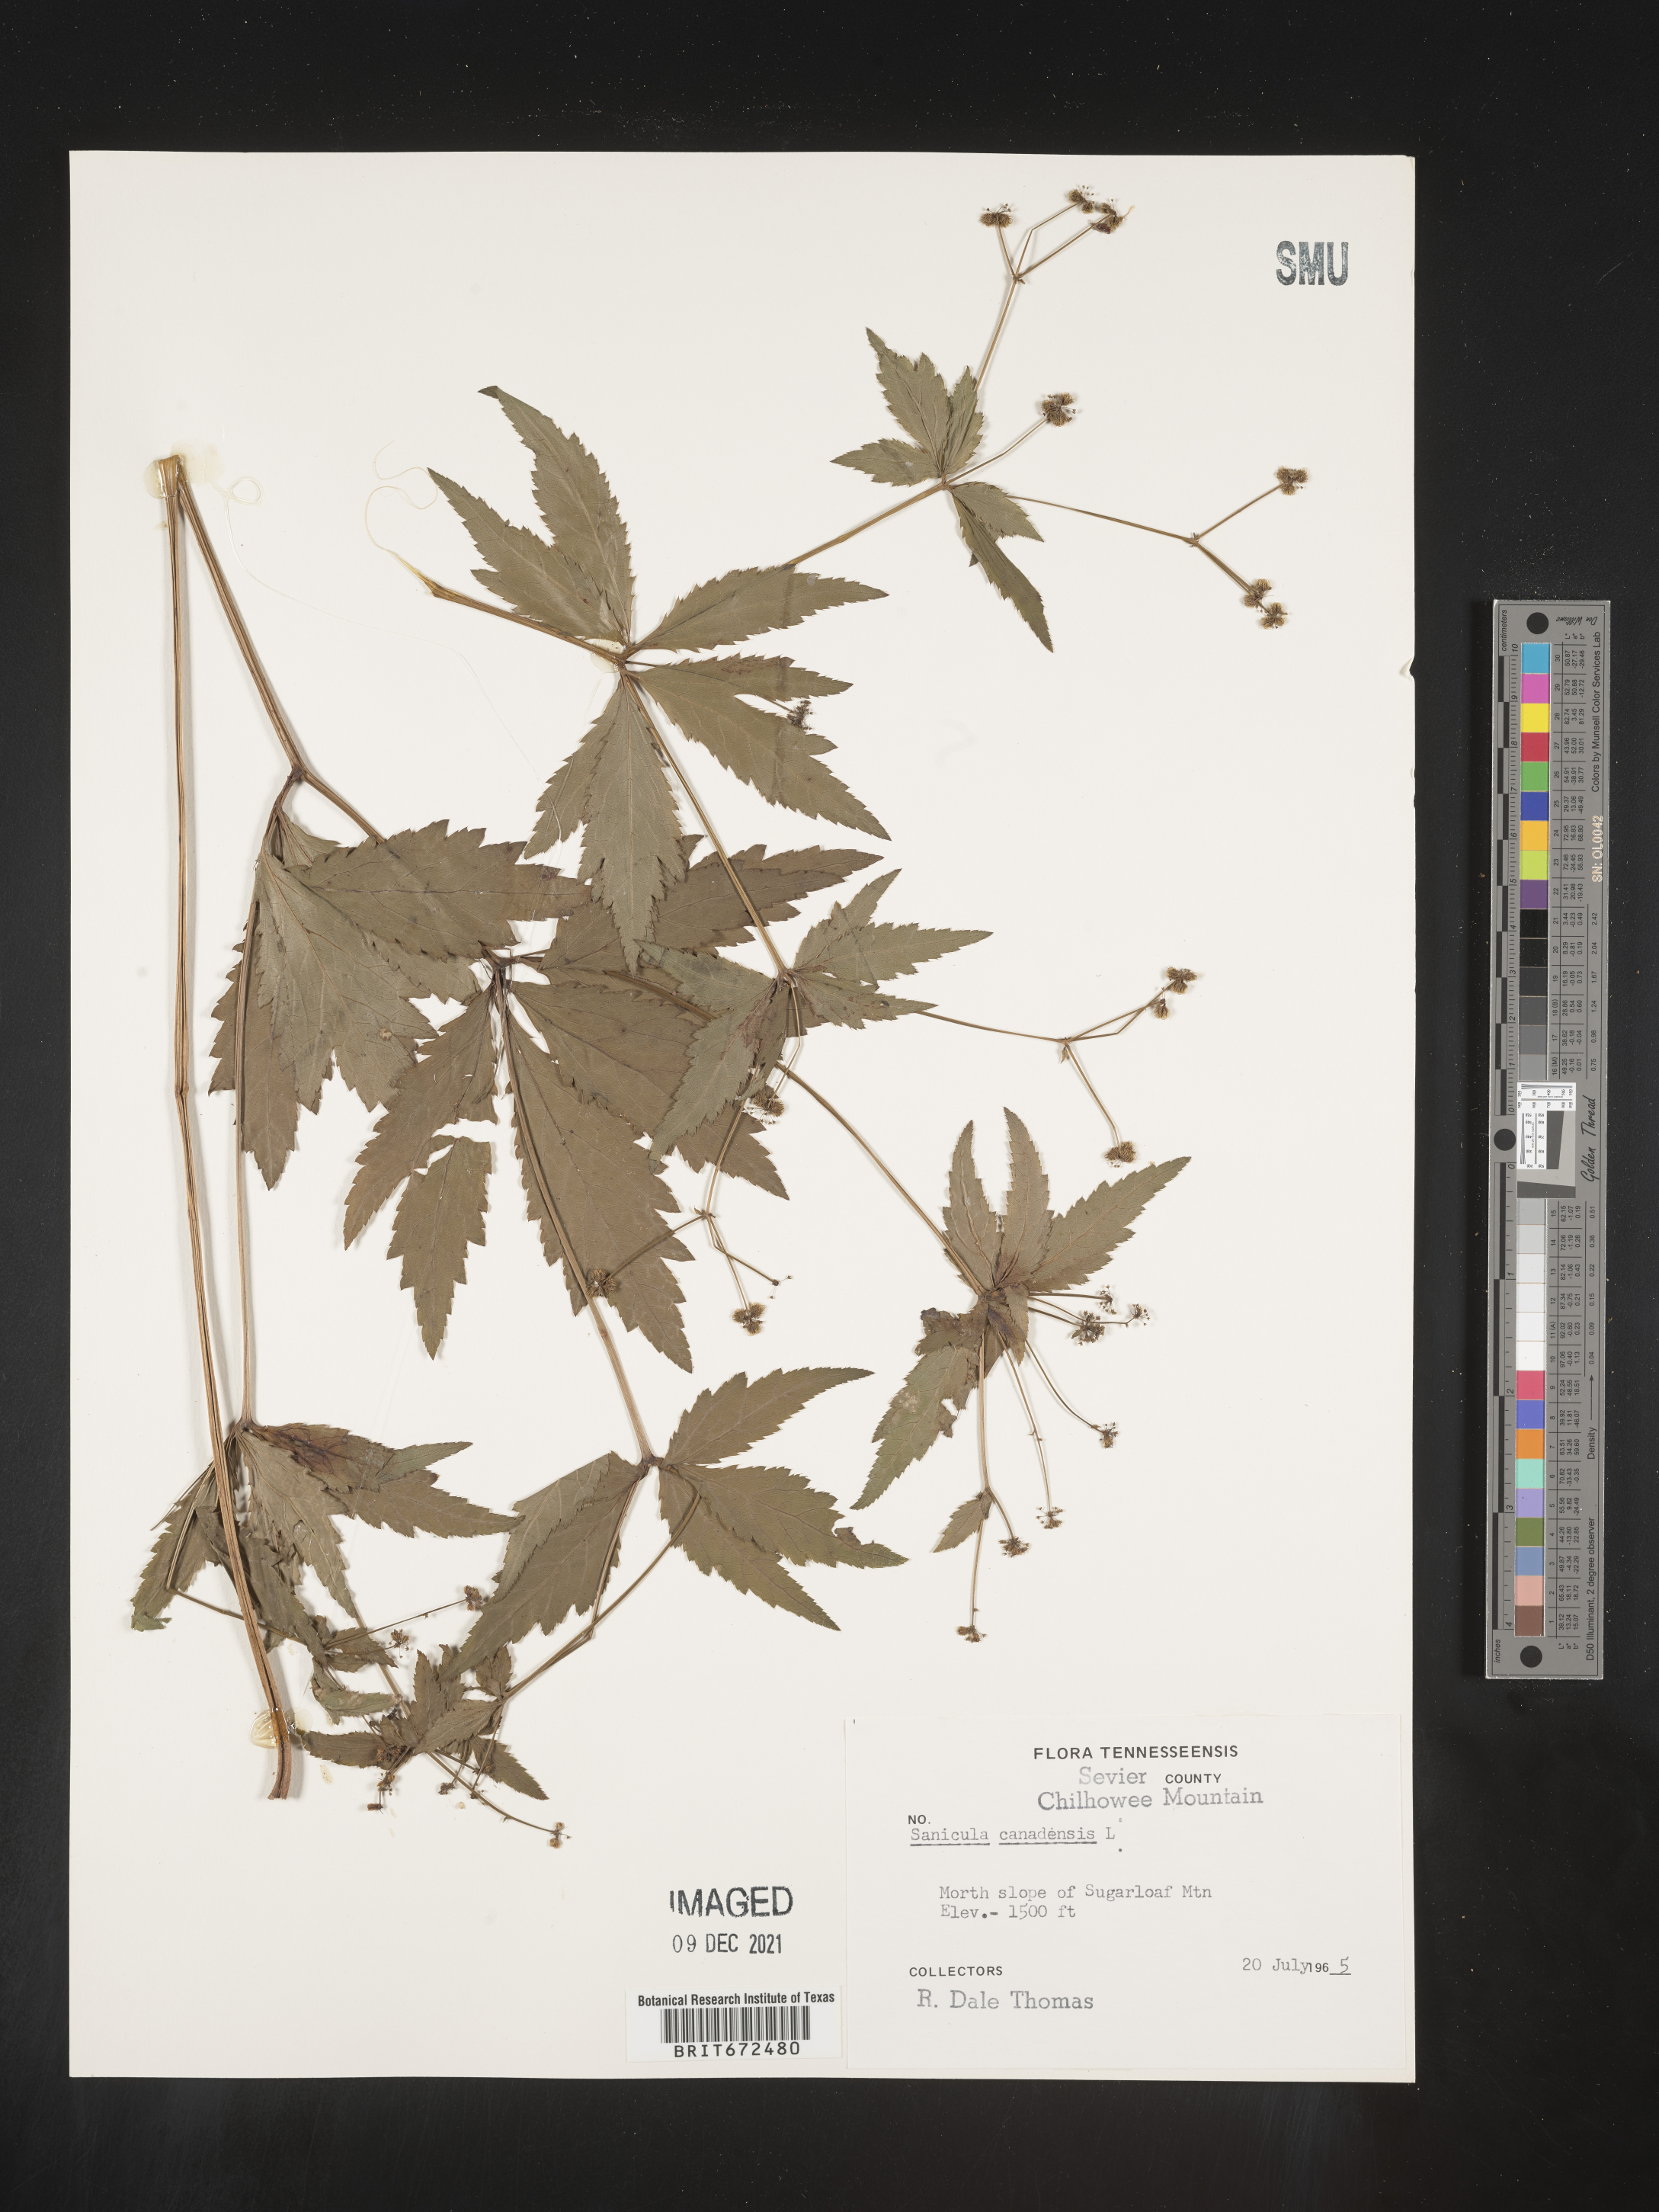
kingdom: Plantae
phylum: Tracheophyta
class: Magnoliopsida
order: Apiales
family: Apiaceae
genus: Sanicula
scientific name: Sanicula canadensis
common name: Canada sanicle
